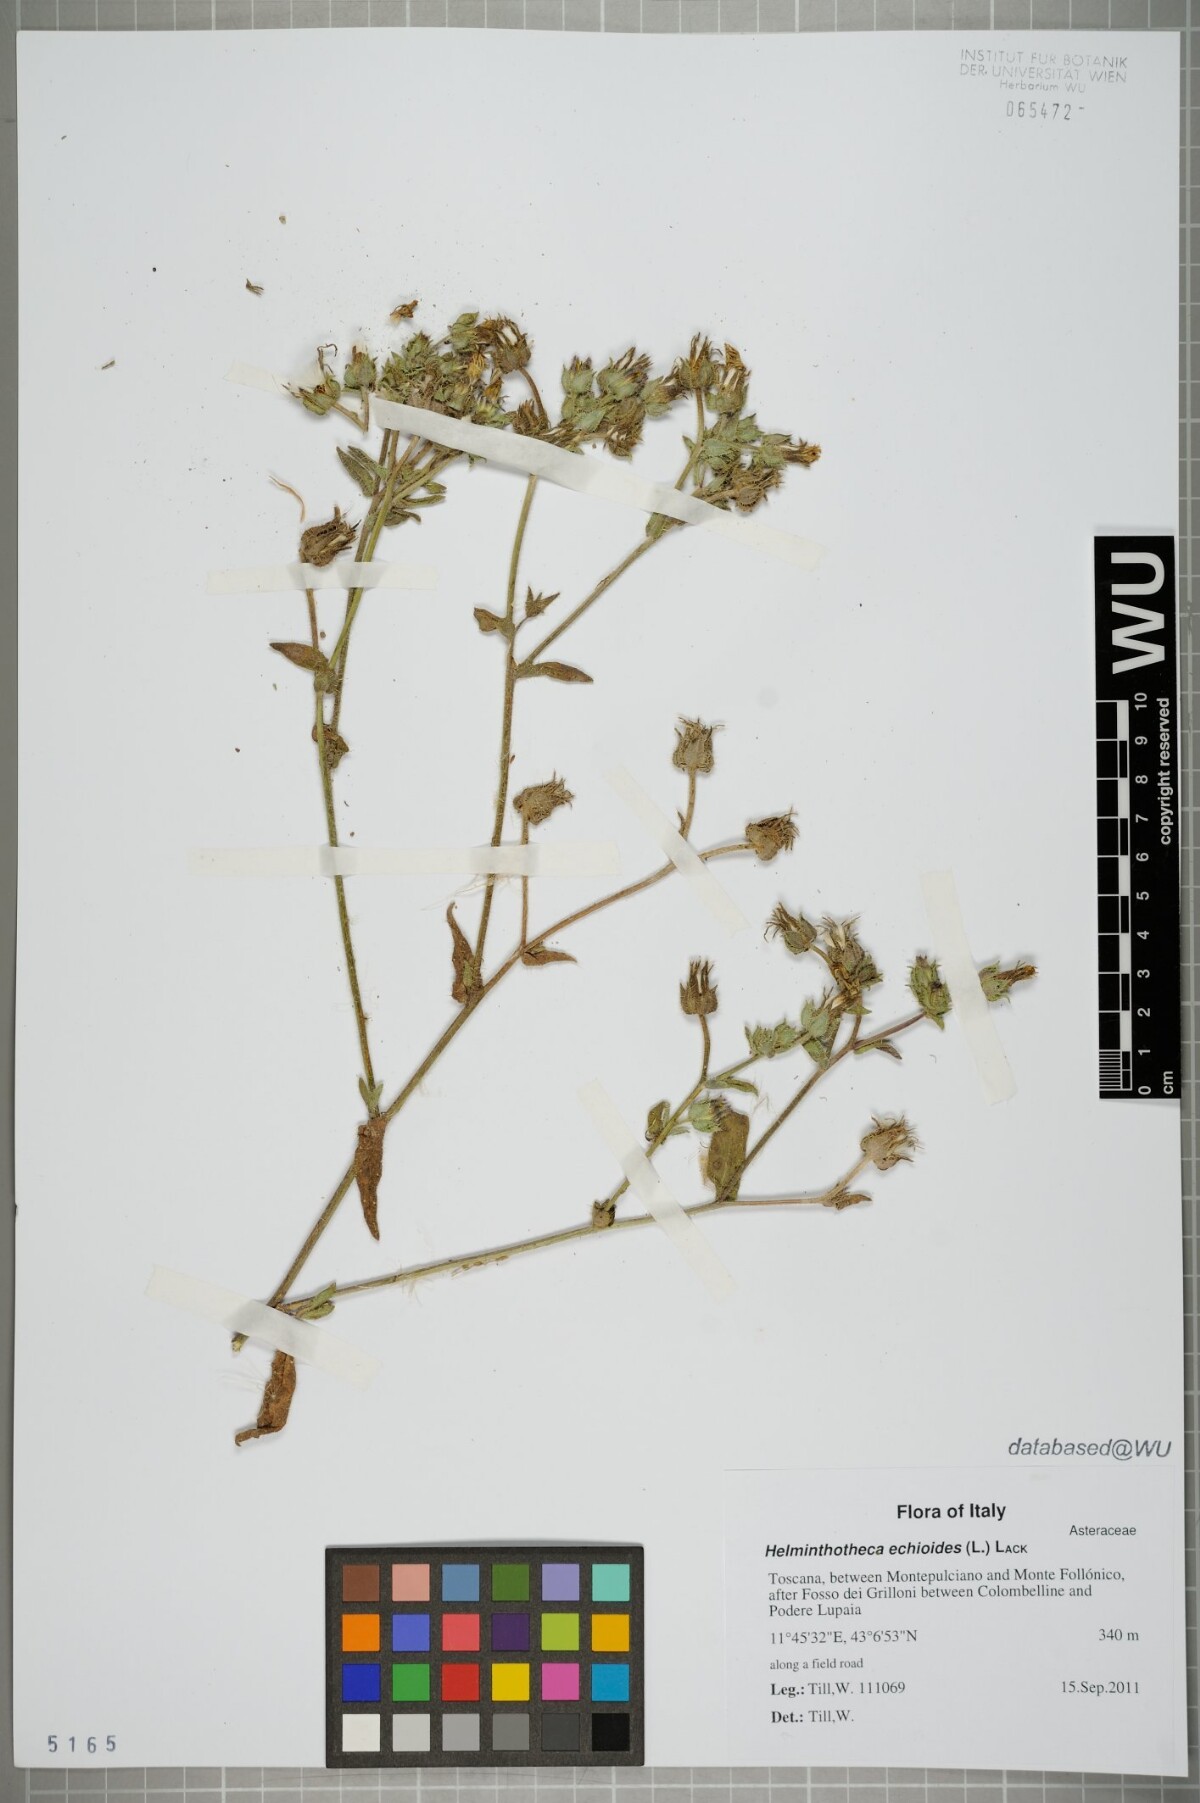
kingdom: Plantae
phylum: Tracheophyta
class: Magnoliopsida
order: Asterales
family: Asteraceae
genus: Helminthotheca
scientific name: Helminthotheca echioides
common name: Ox-tongue
